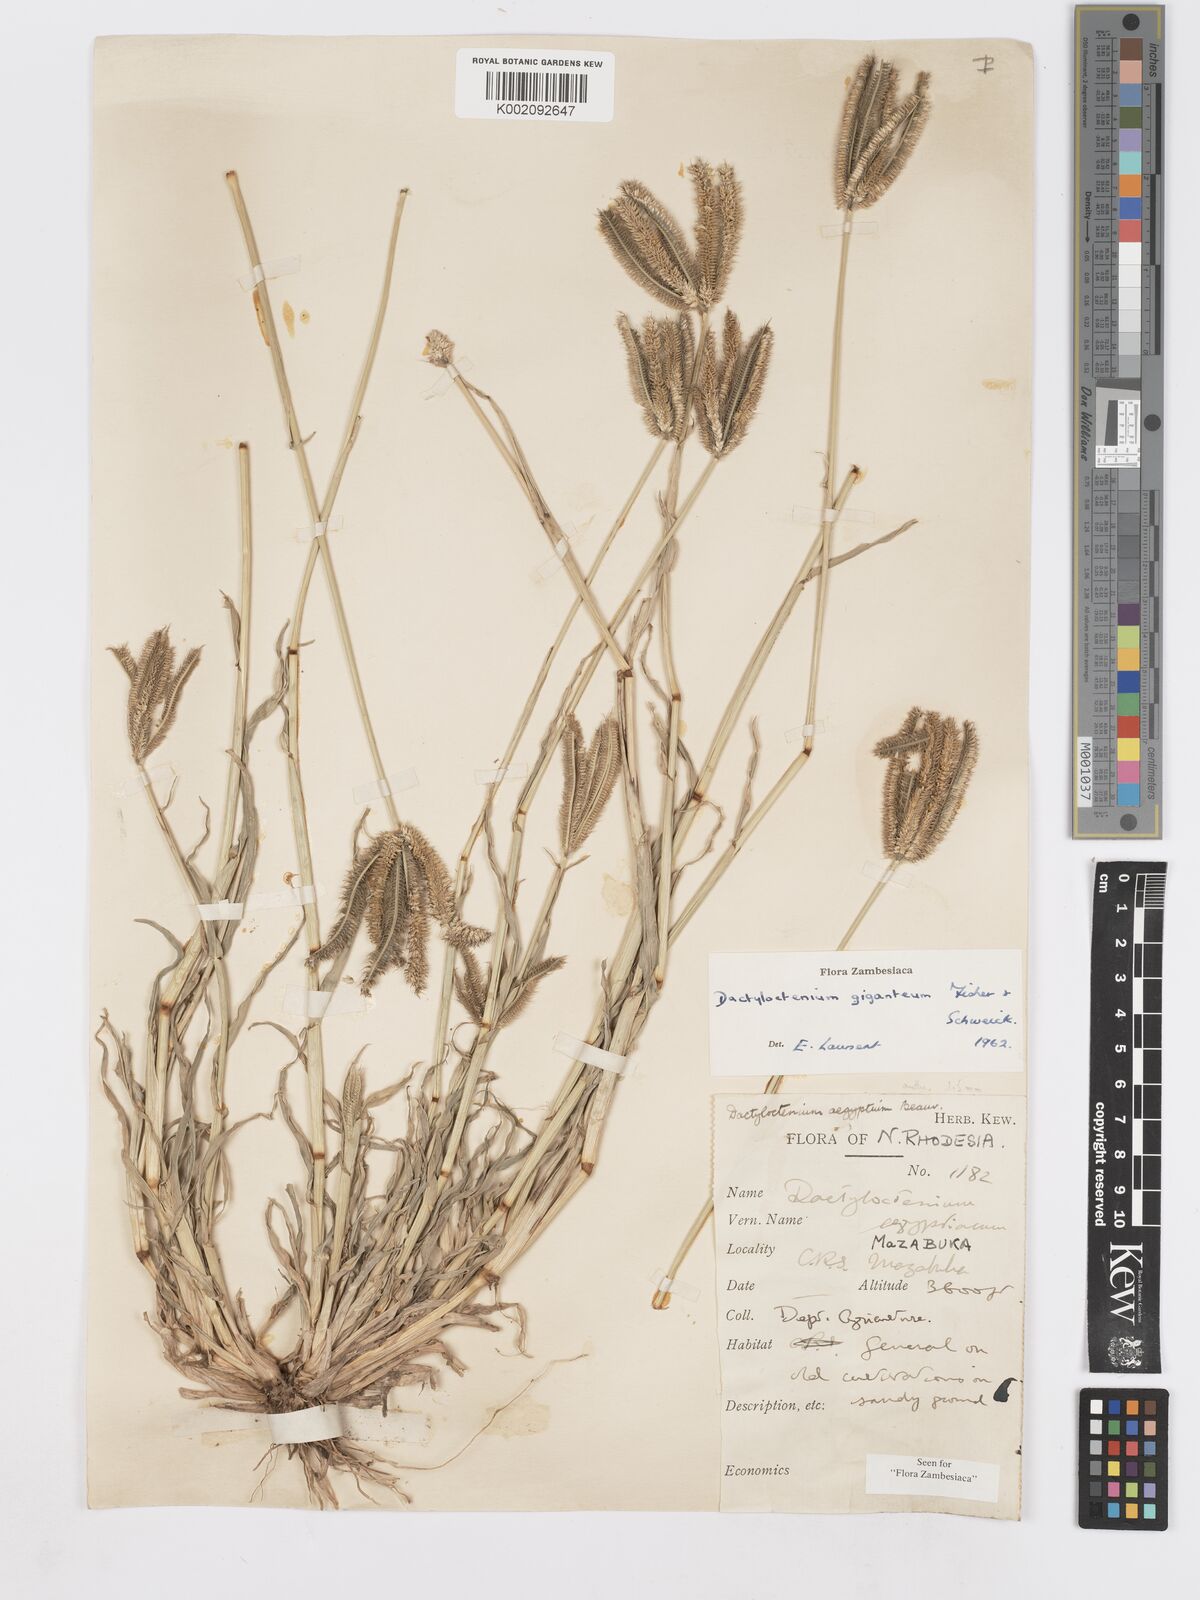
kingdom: Plantae
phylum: Tracheophyta
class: Liliopsida
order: Poales
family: Poaceae
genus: Dactyloctenium
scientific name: Dactyloctenium giganteum
